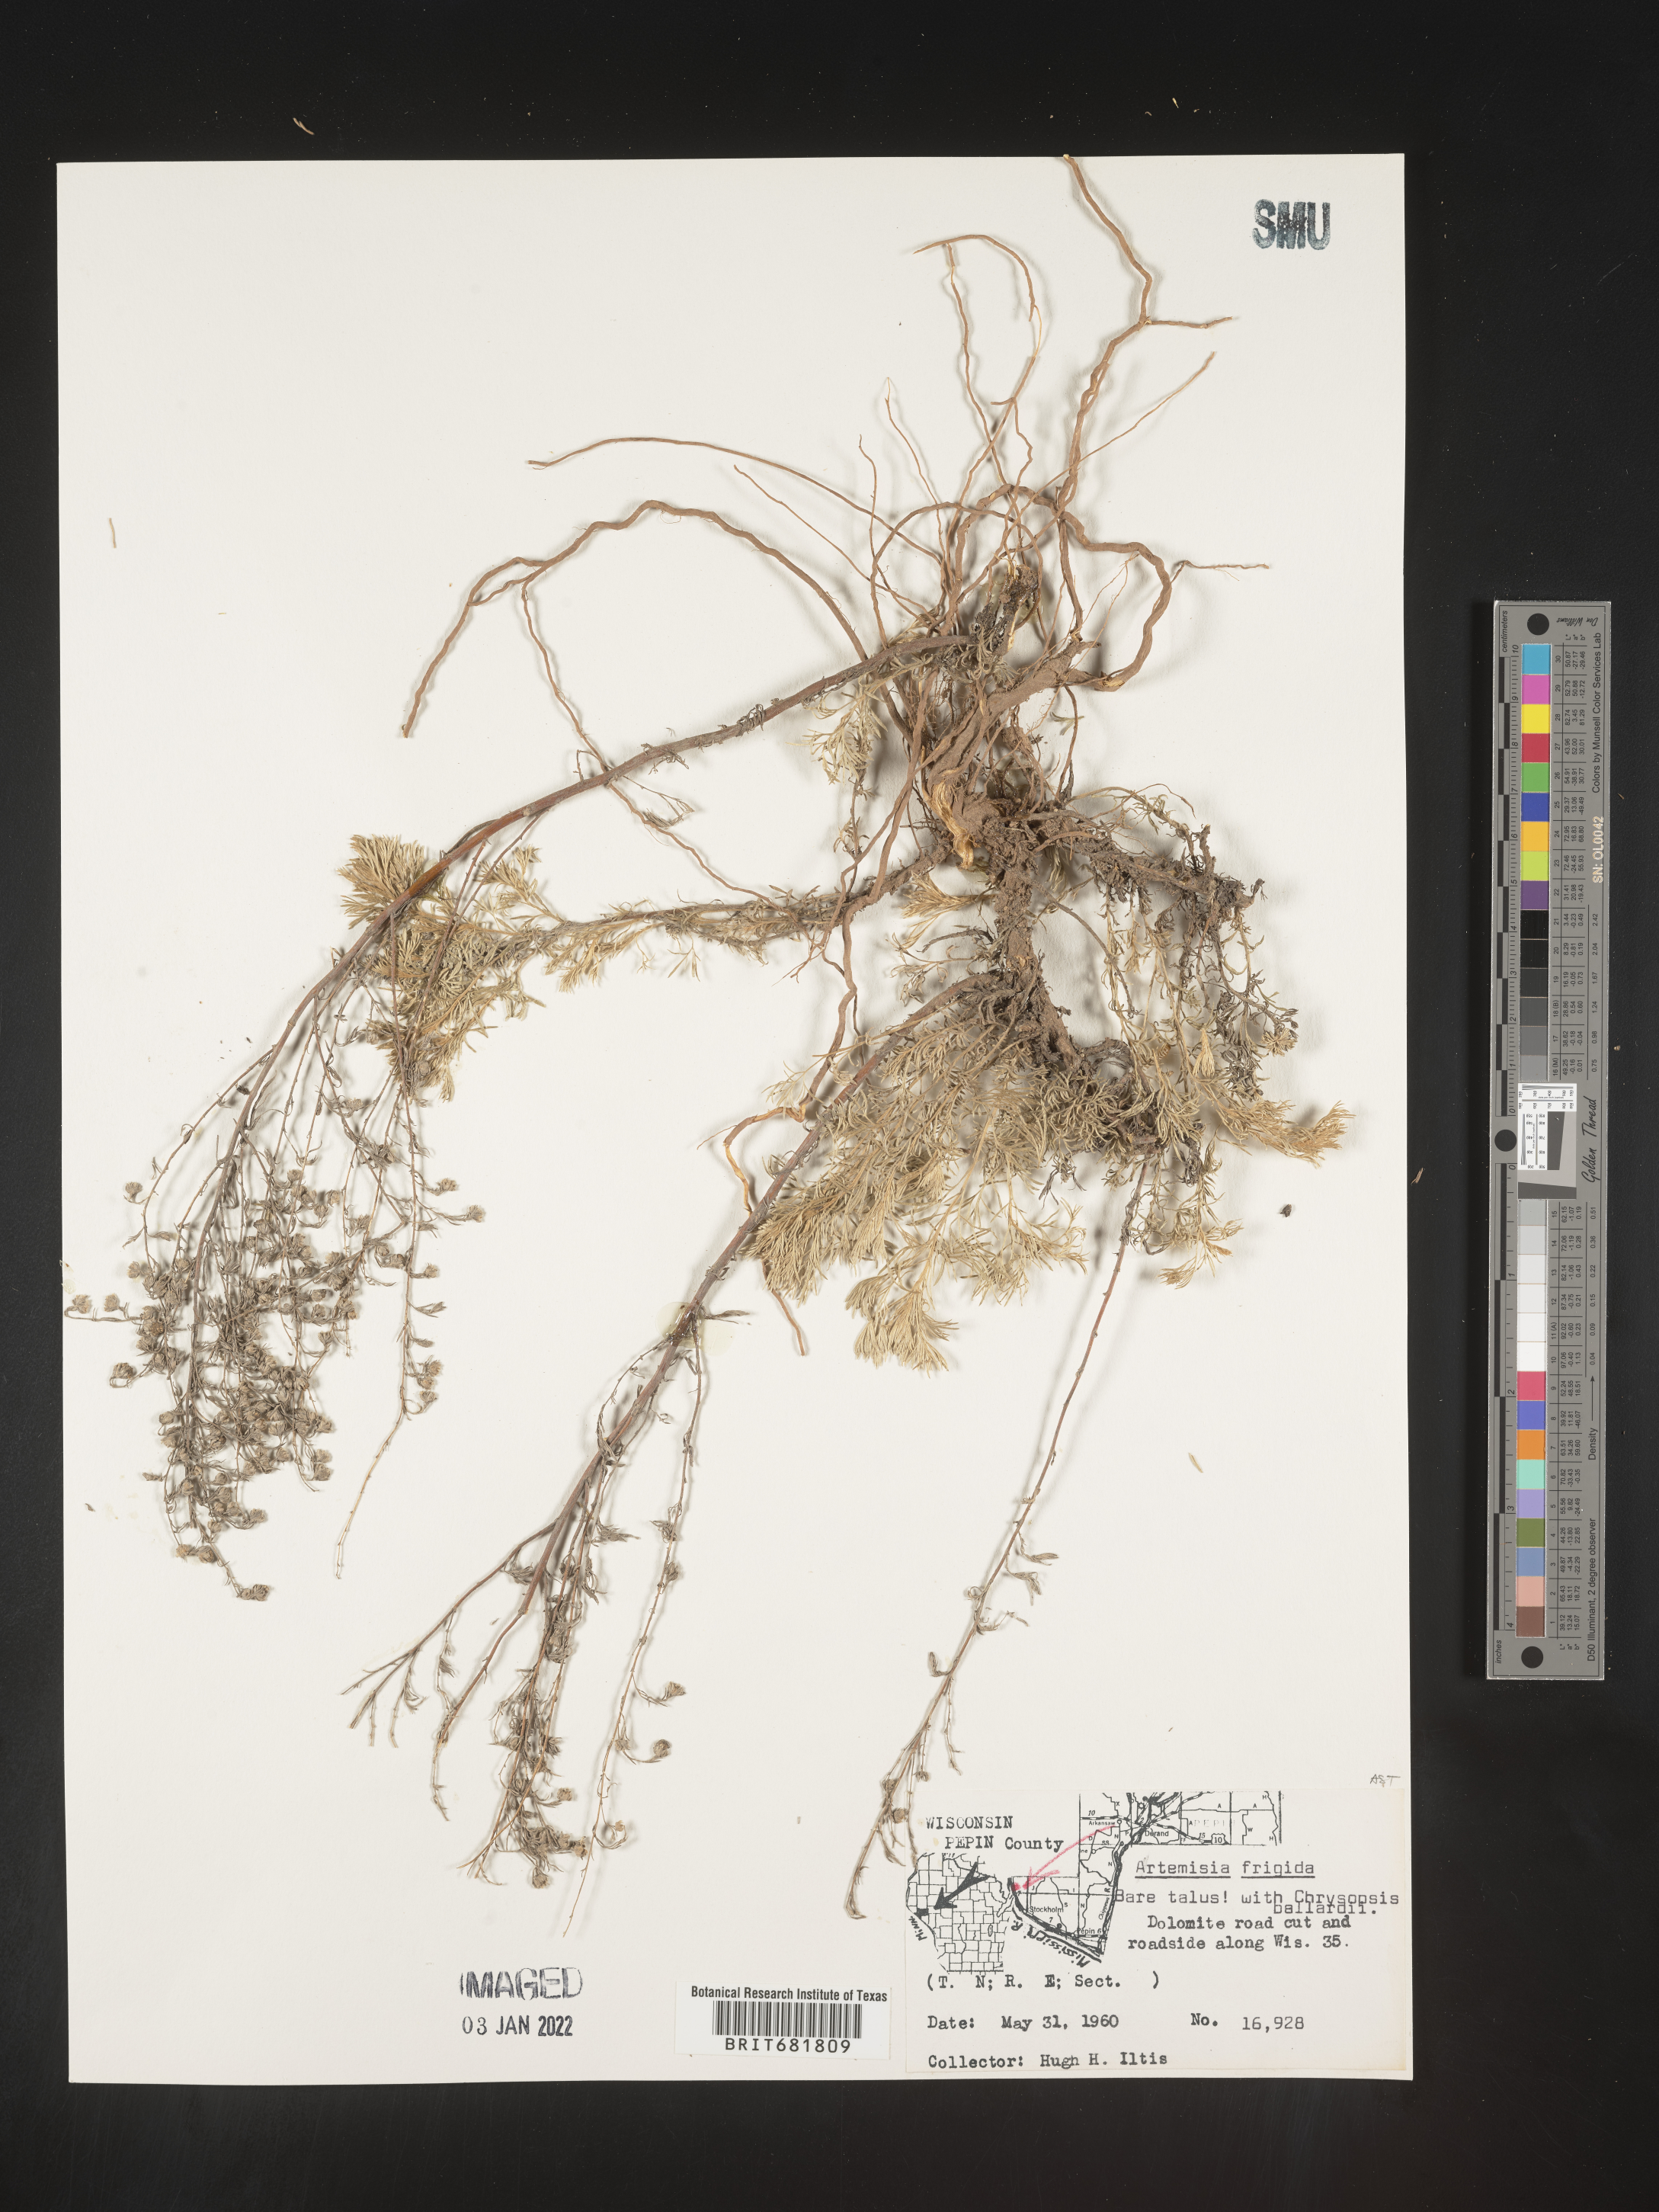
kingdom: Plantae
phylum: Tracheophyta
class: Magnoliopsida
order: Asterales
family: Asteraceae
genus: Artemisia
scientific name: Artemisia frigida
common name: Prairie sagewort
